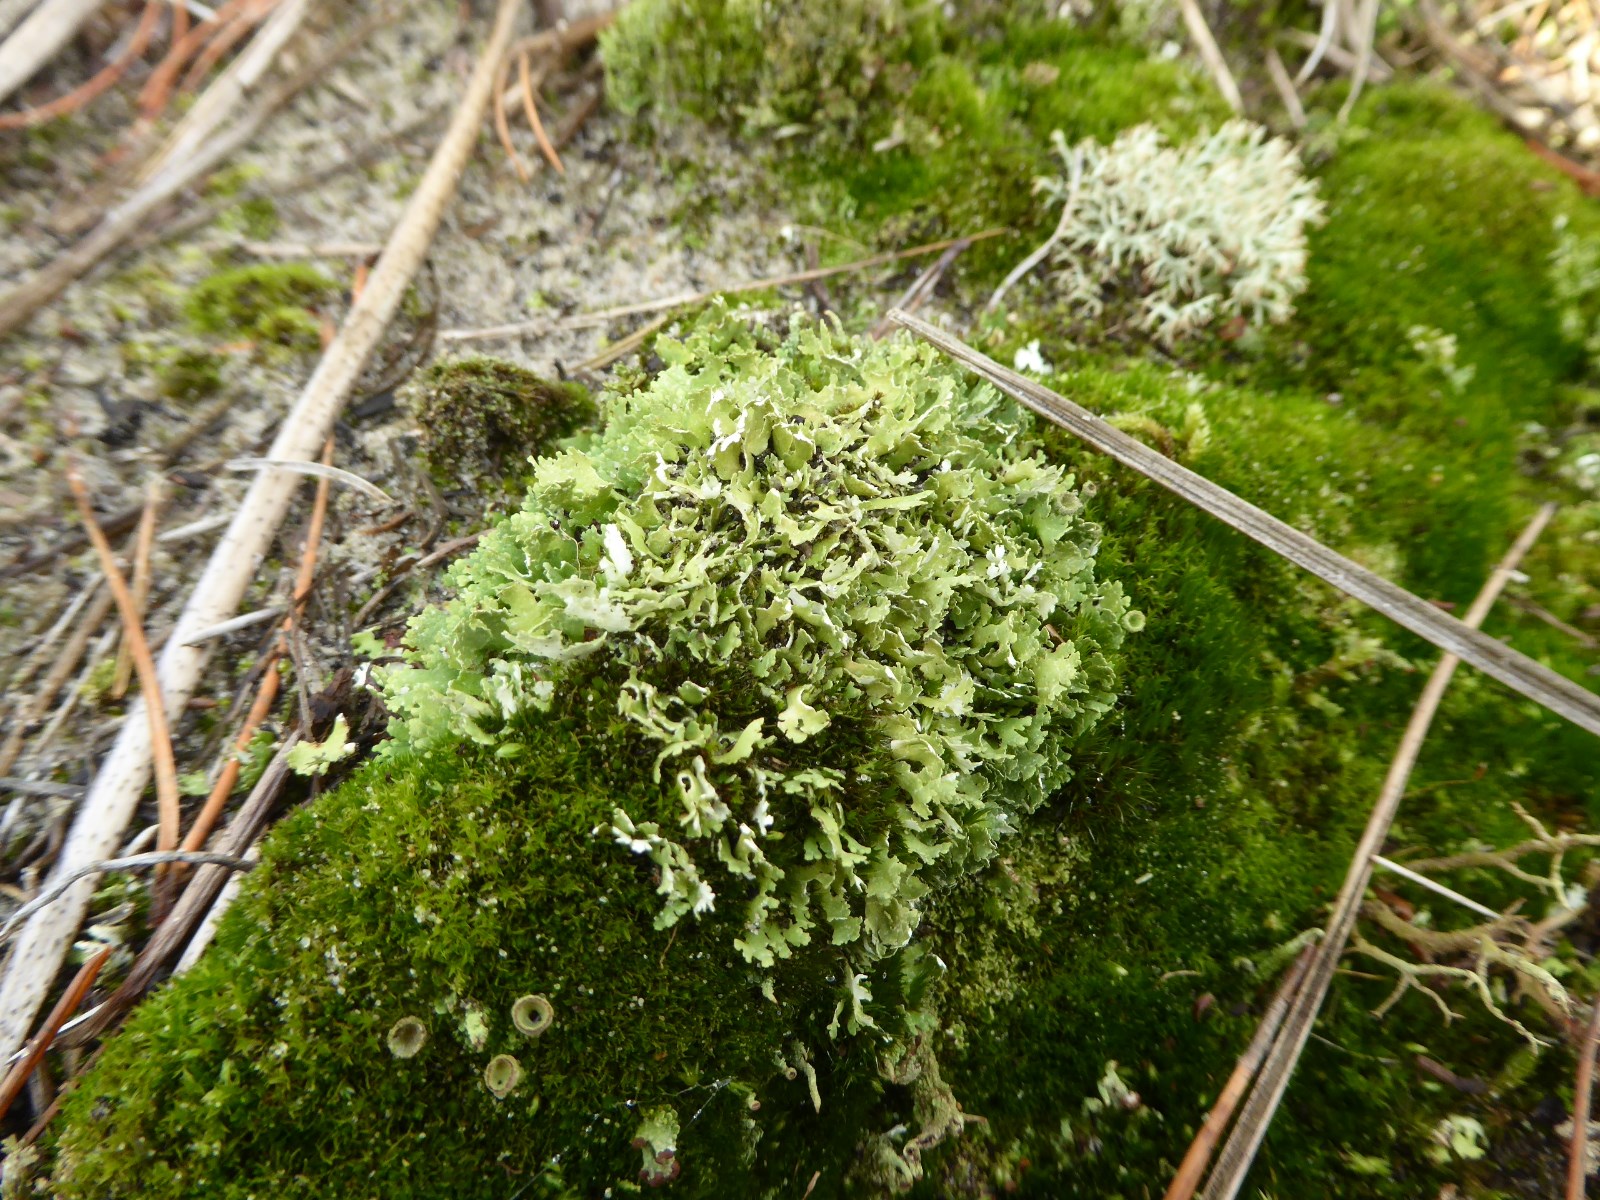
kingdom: Fungi
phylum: Ascomycota
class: Lecanoromycetes
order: Lecanorales
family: Cladoniaceae
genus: Cladonia
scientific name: Cladonia foliacea
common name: fliget bægerlav
